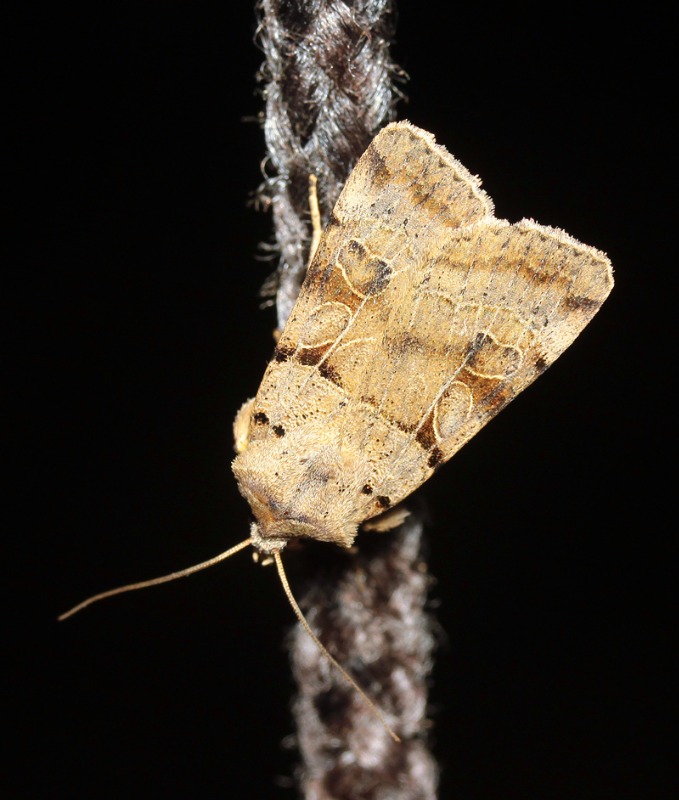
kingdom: Animalia
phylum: Arthropoda
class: Insecta
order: Lepidoptera
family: Noctuidae
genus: Eugnorisma
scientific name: Eugnorisma depuncta
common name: Skarptegnet ugle
